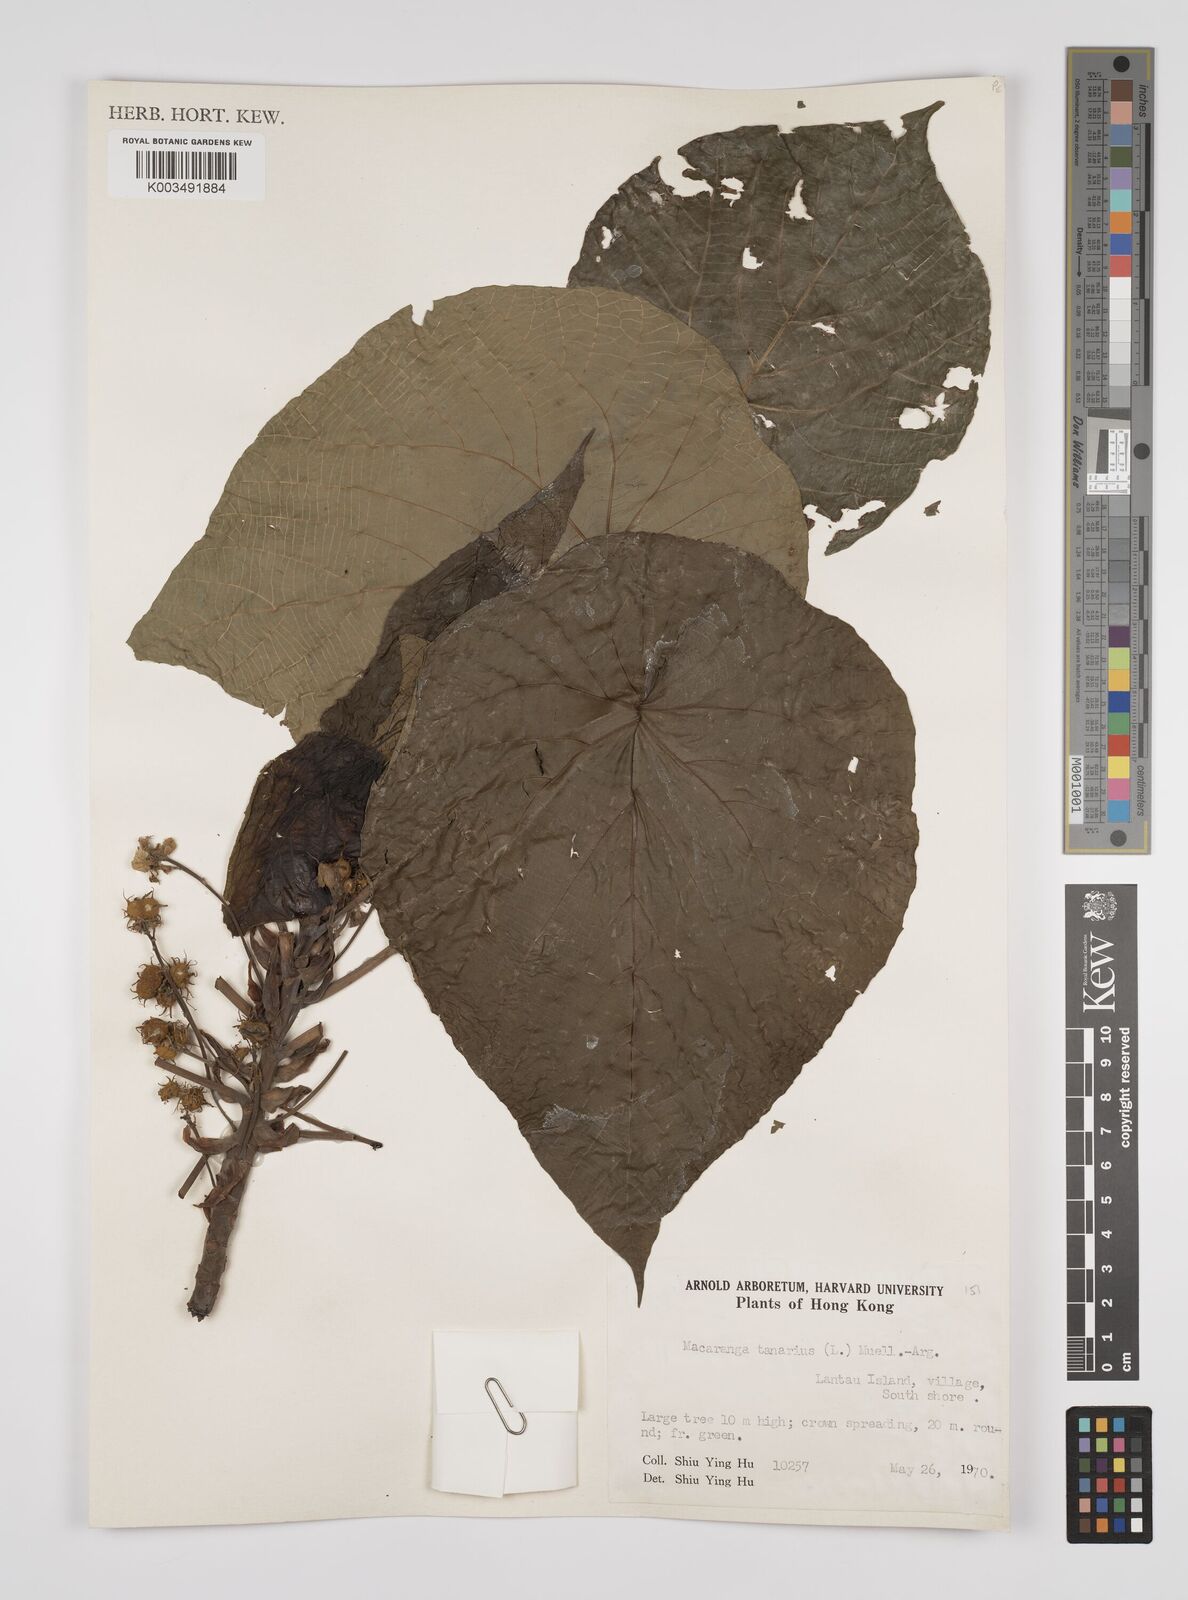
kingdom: Plantae
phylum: Tracheophyta
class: Magnoliopsida
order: Malpighiales
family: Euphorbiaceae
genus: Macaranga
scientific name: Macaranga tanarius
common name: Parasol leaf tree
